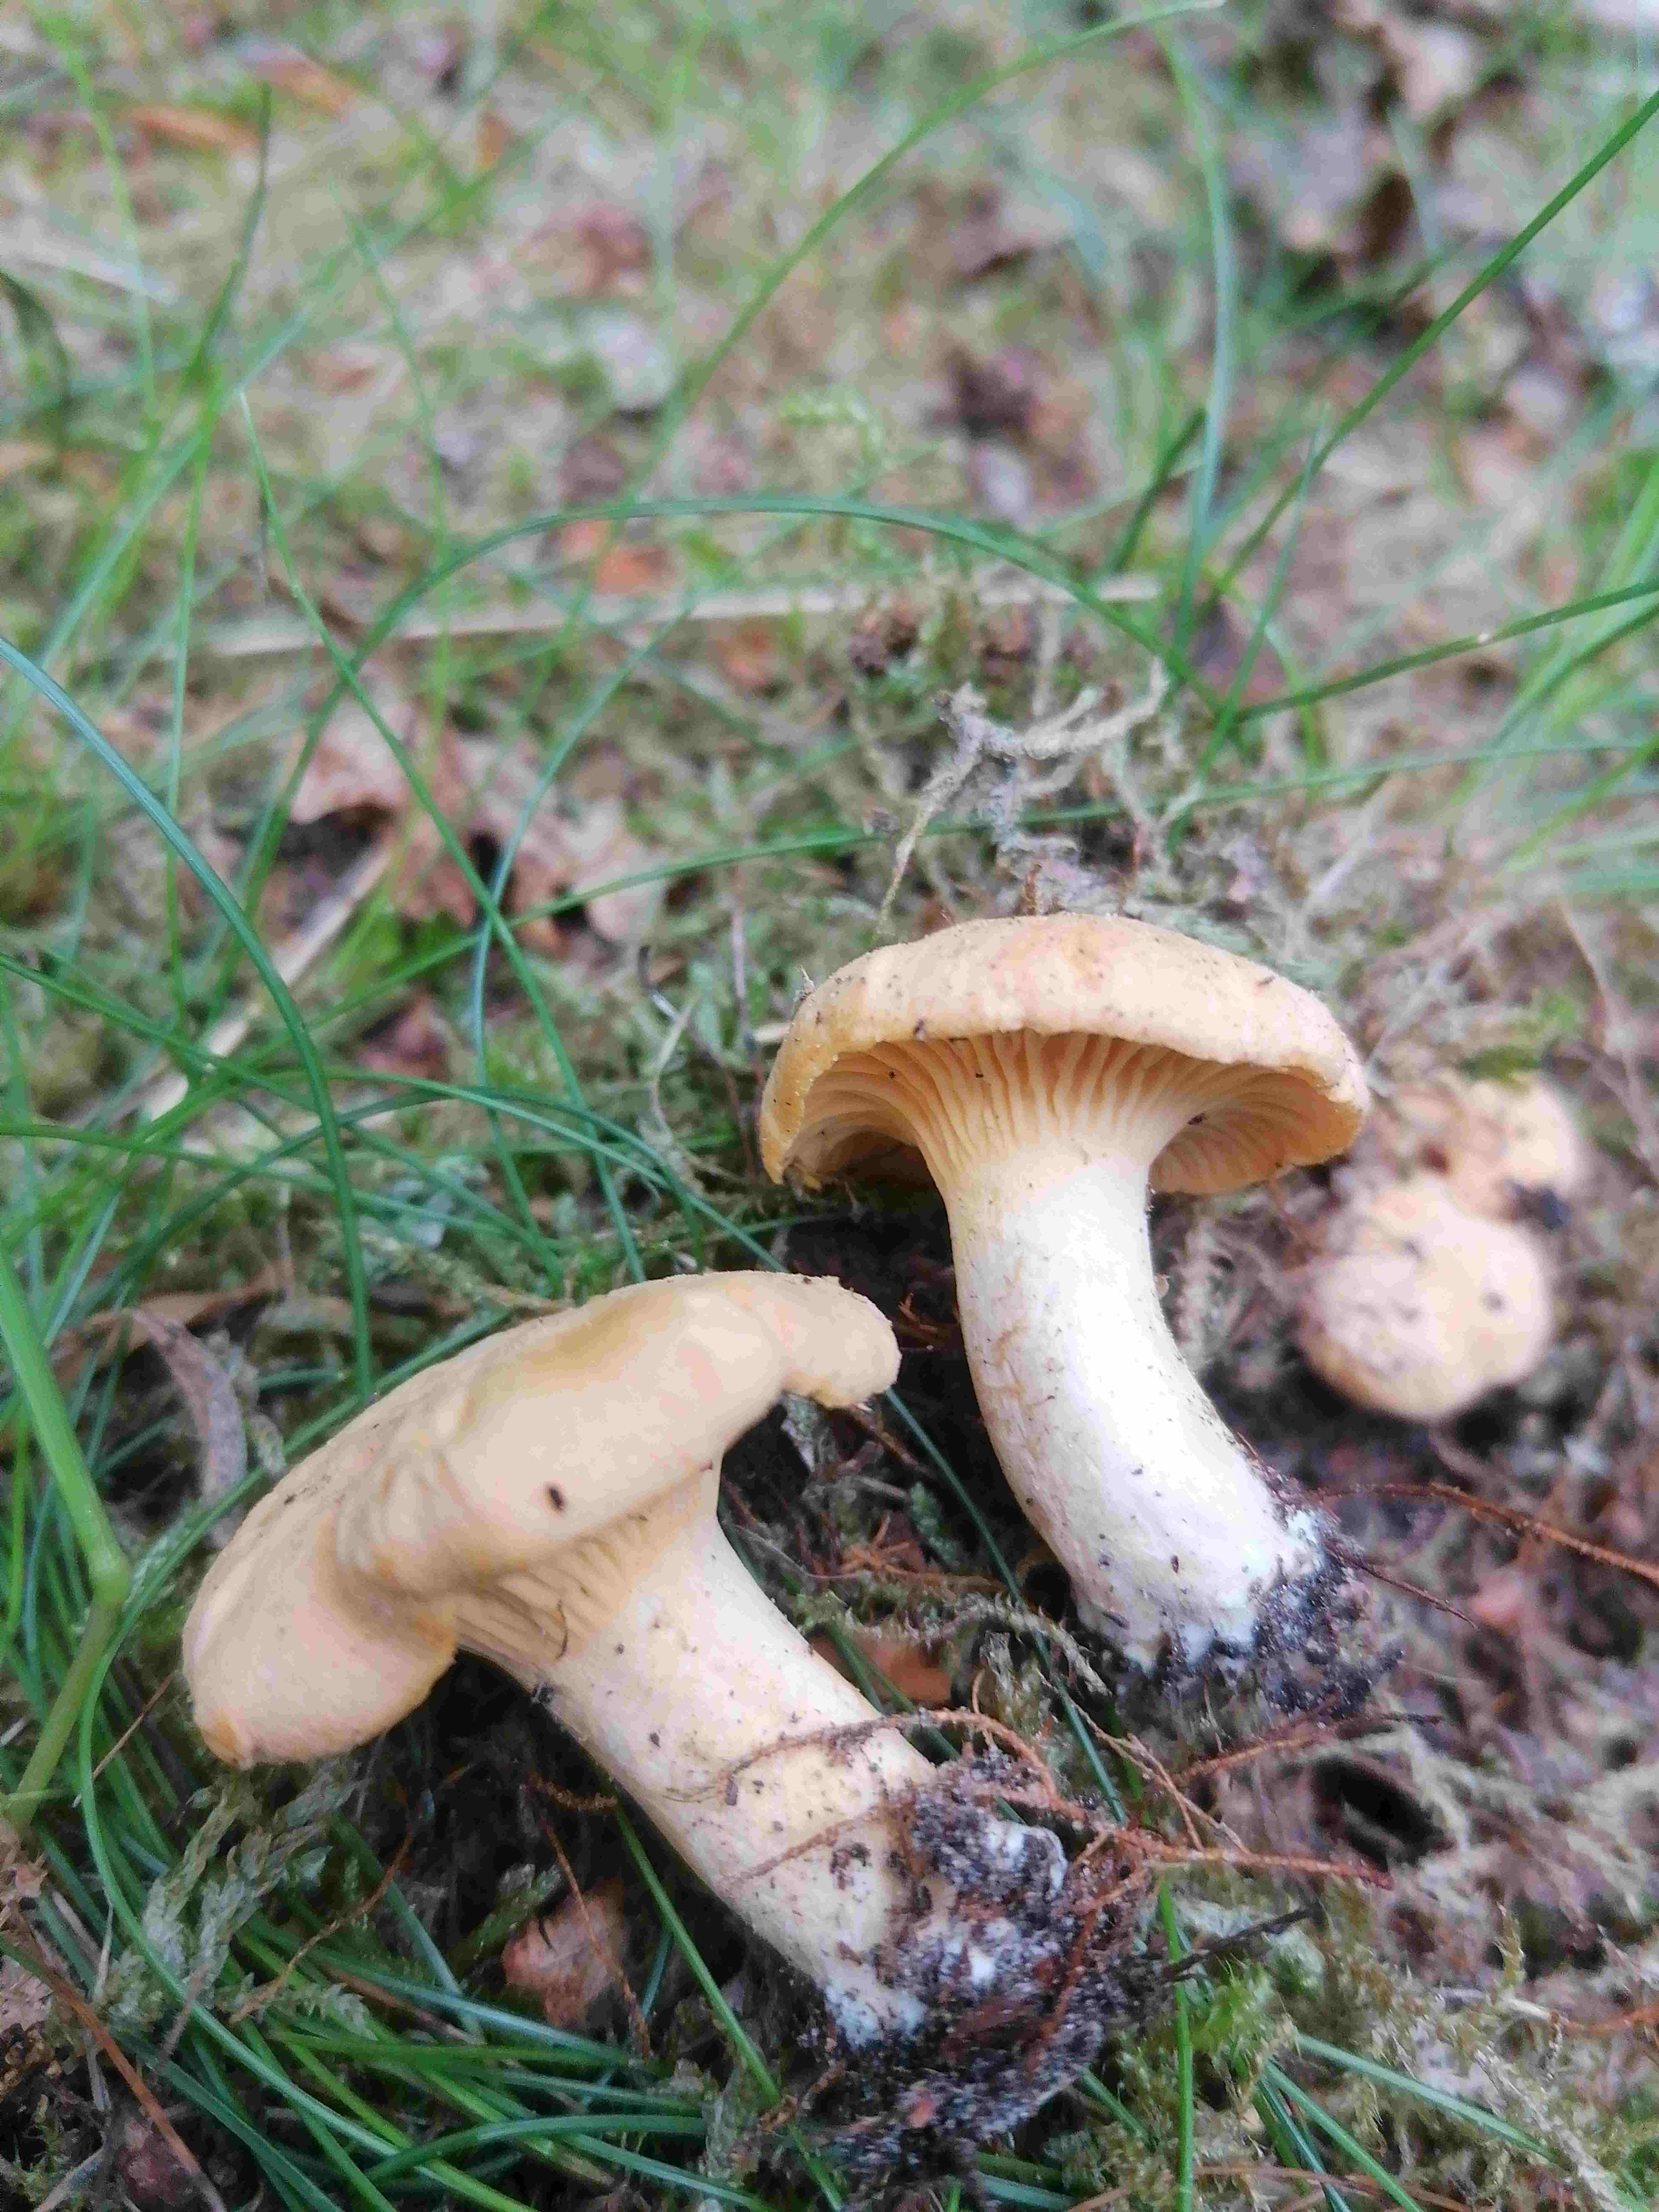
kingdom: Fungi
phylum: Basidiomycota
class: Agaricomycetes
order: Cantharellales
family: Hydnaceae
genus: Cantharellus
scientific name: Cantharellus
